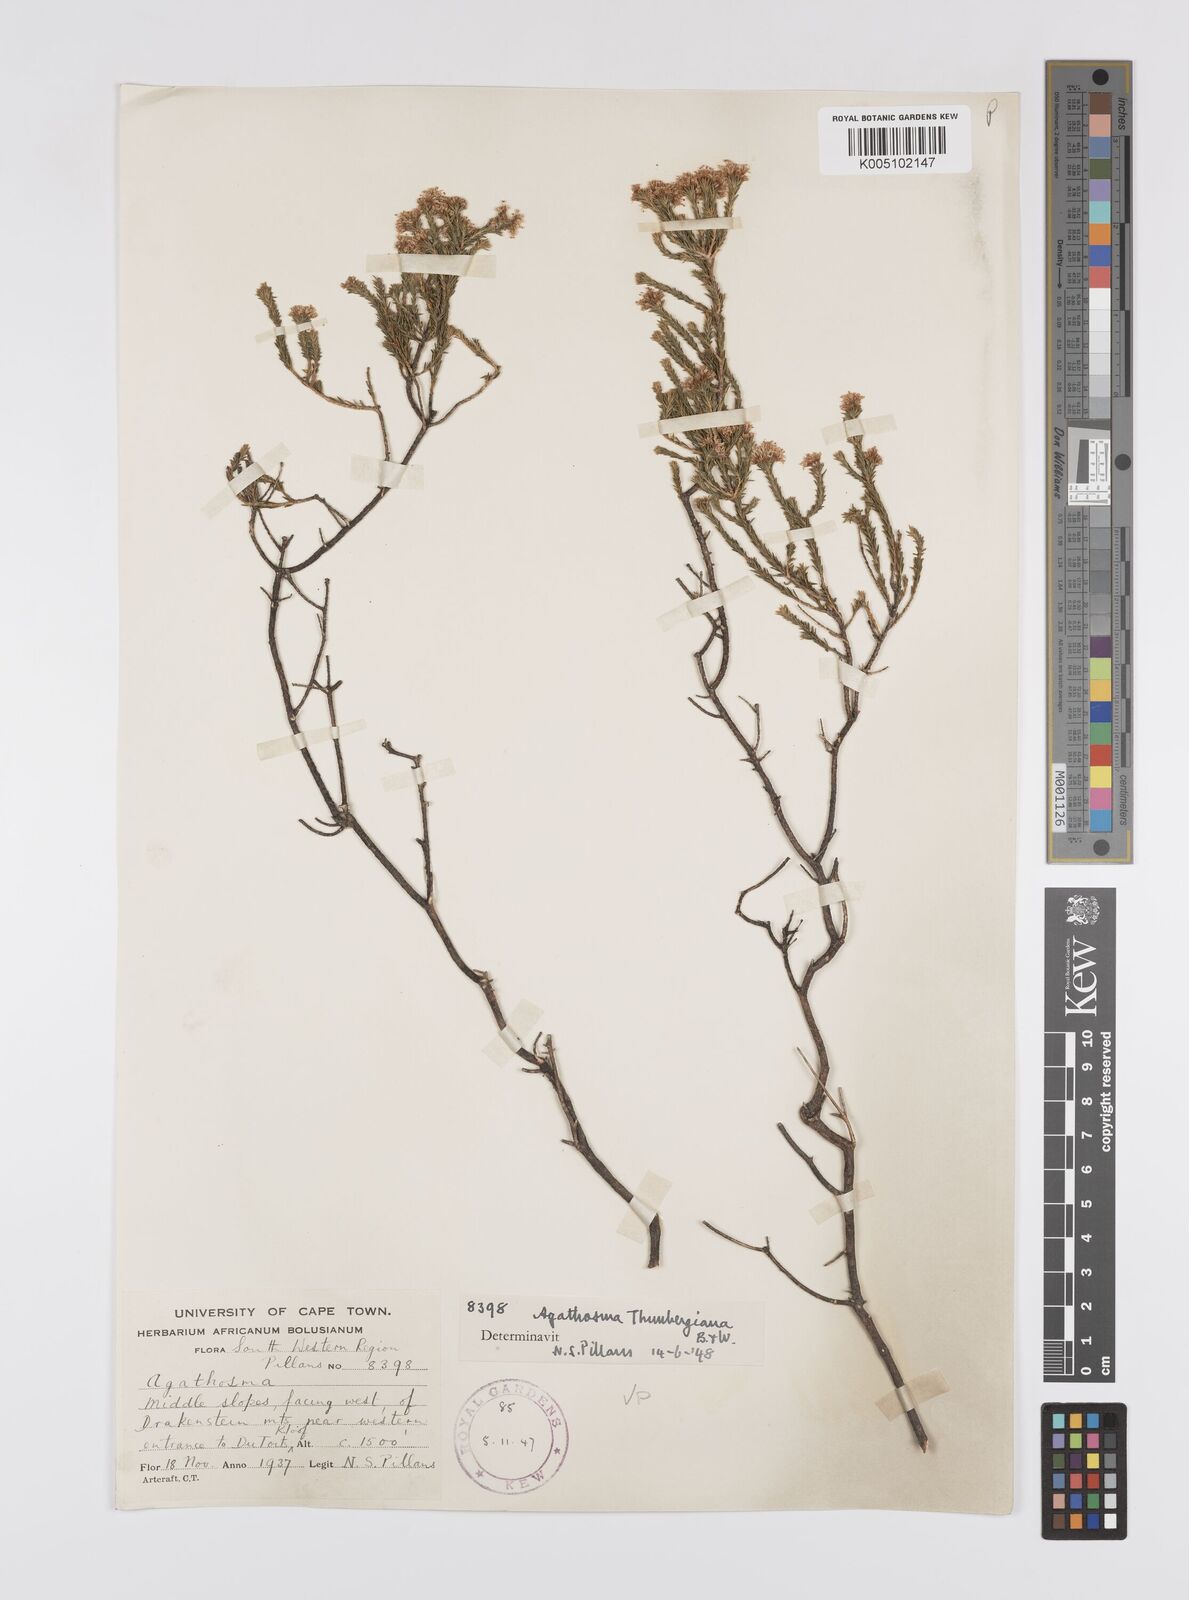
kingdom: Plantae
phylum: Tracheophyta
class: Magnoliopsida
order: Sapindales
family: Rutaceae
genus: Agathosma
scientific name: Agathosma capensis
